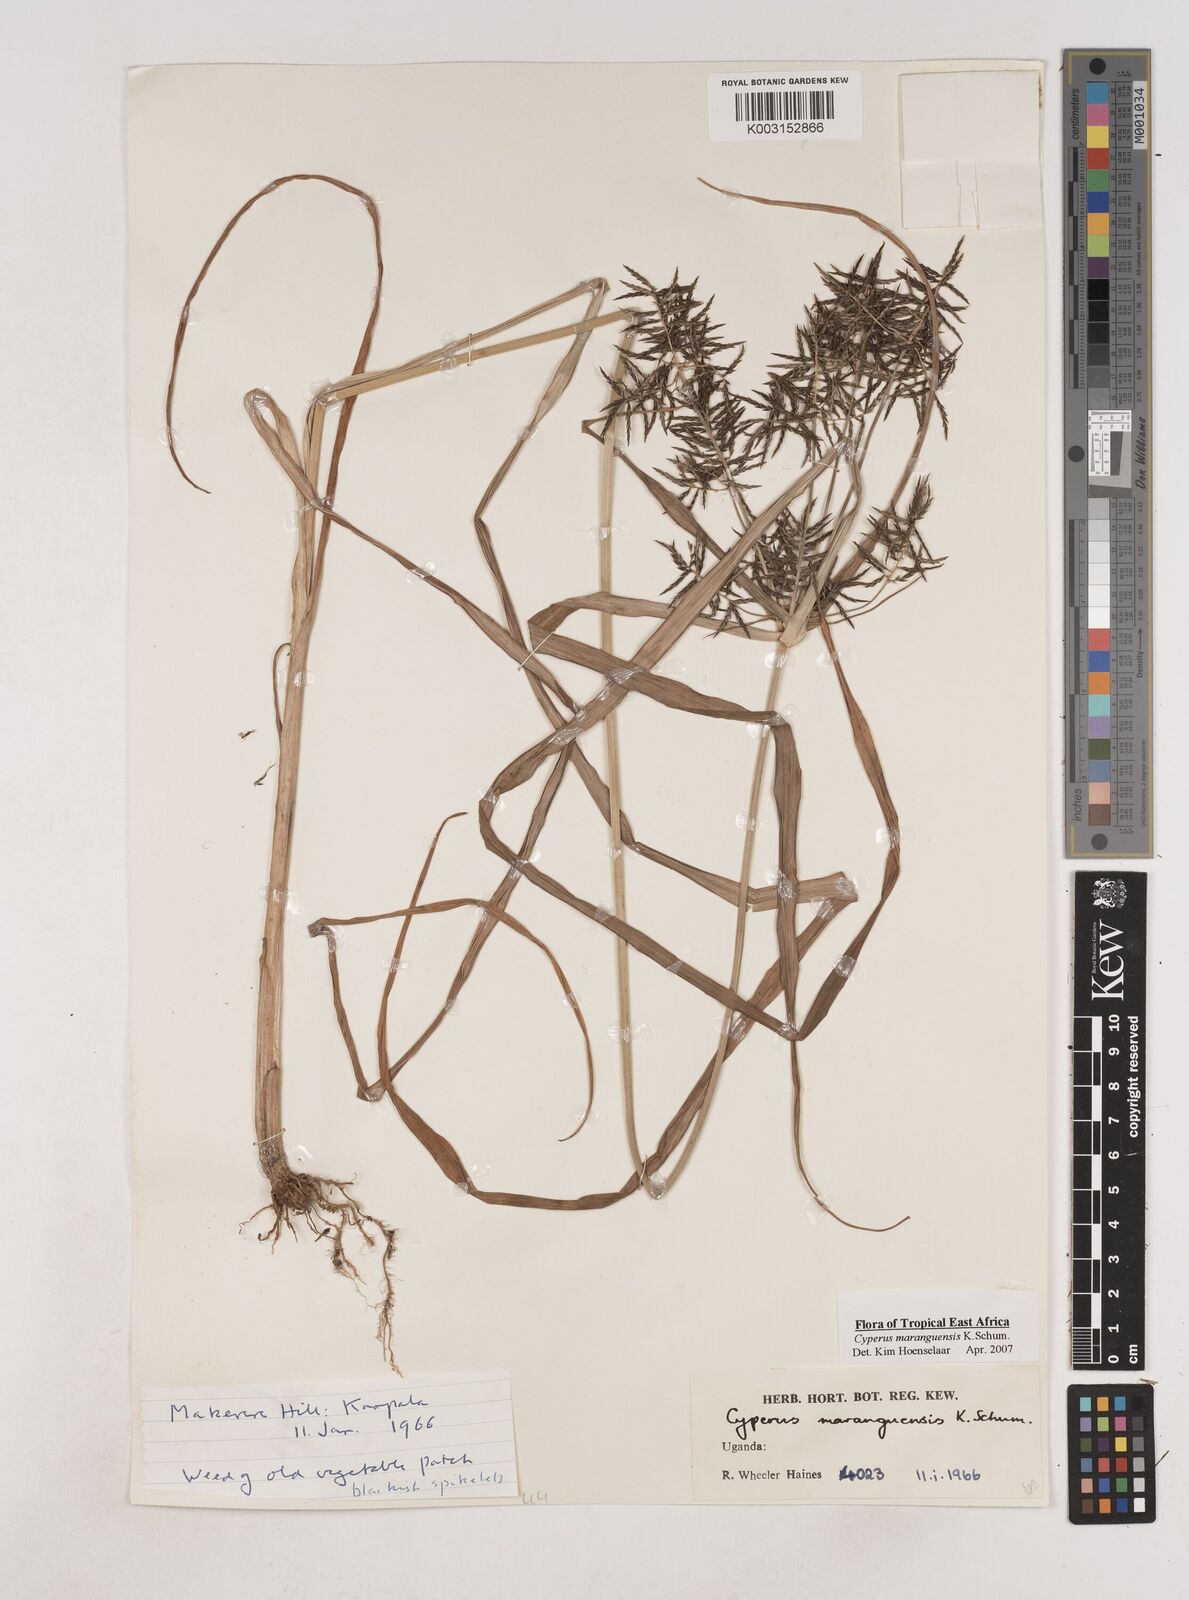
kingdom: Plantae
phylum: Tracheophyta
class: Liliopsida
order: Poales
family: Cyperaceae
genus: Cyperus
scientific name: Cyperus maranguensis
